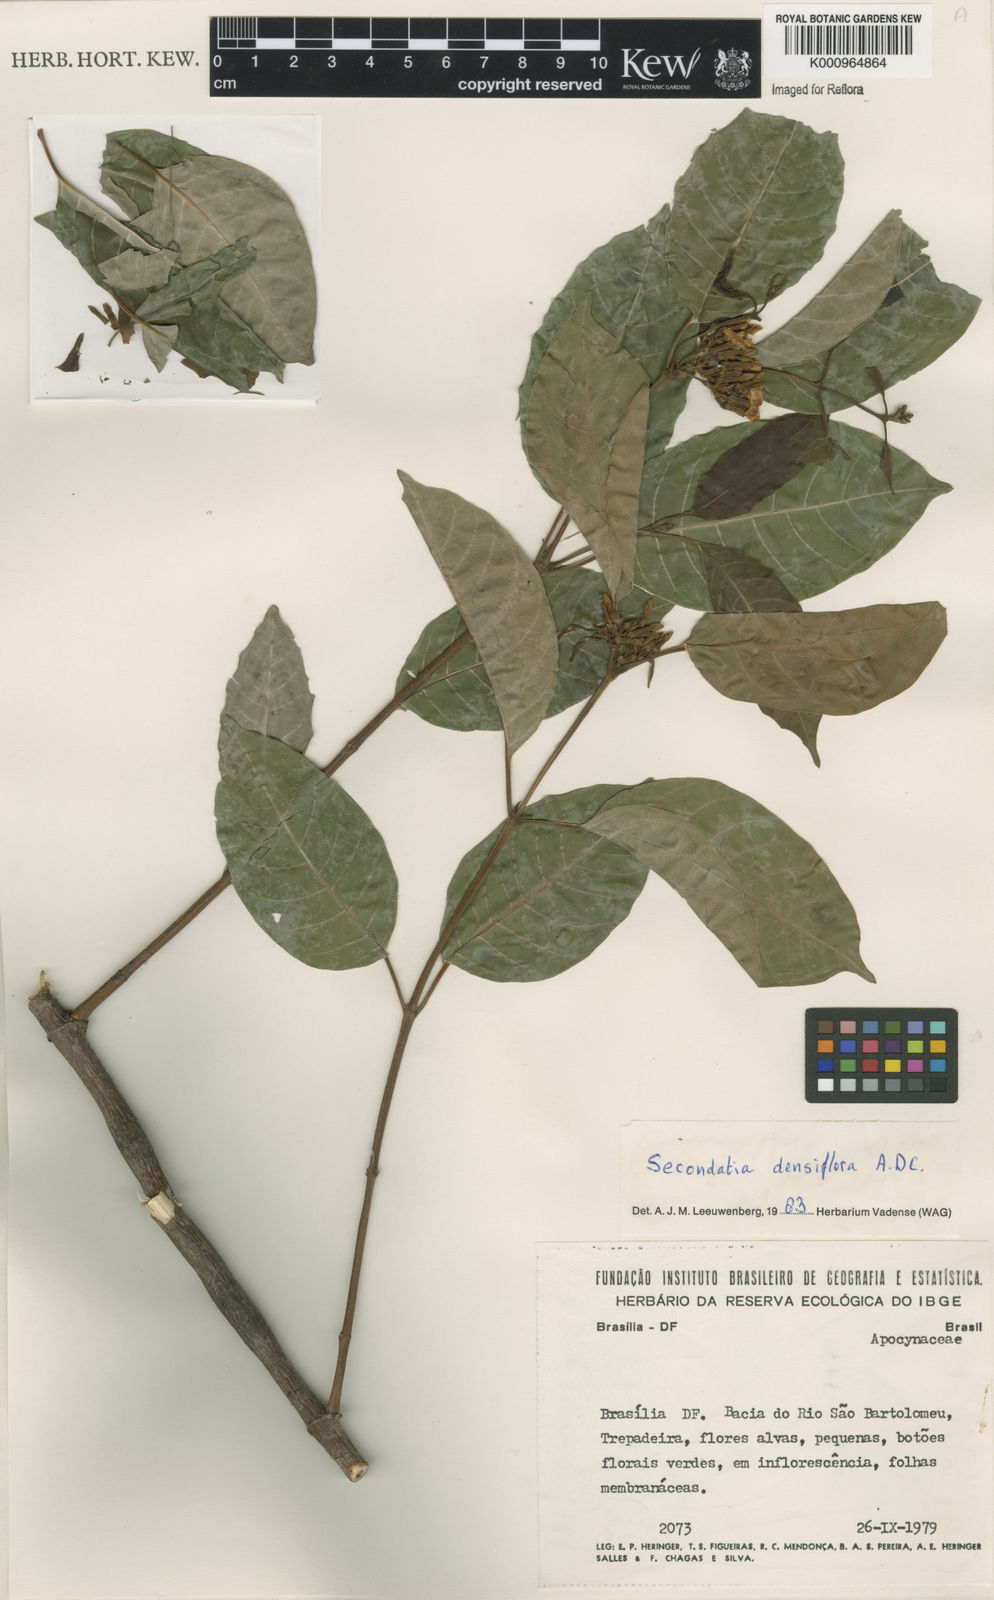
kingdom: Plantae
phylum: Tracheophyta
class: Magnoliopsida
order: Gentianales
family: Apocynaceae
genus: Secondatia
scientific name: Secondatia densiflora
